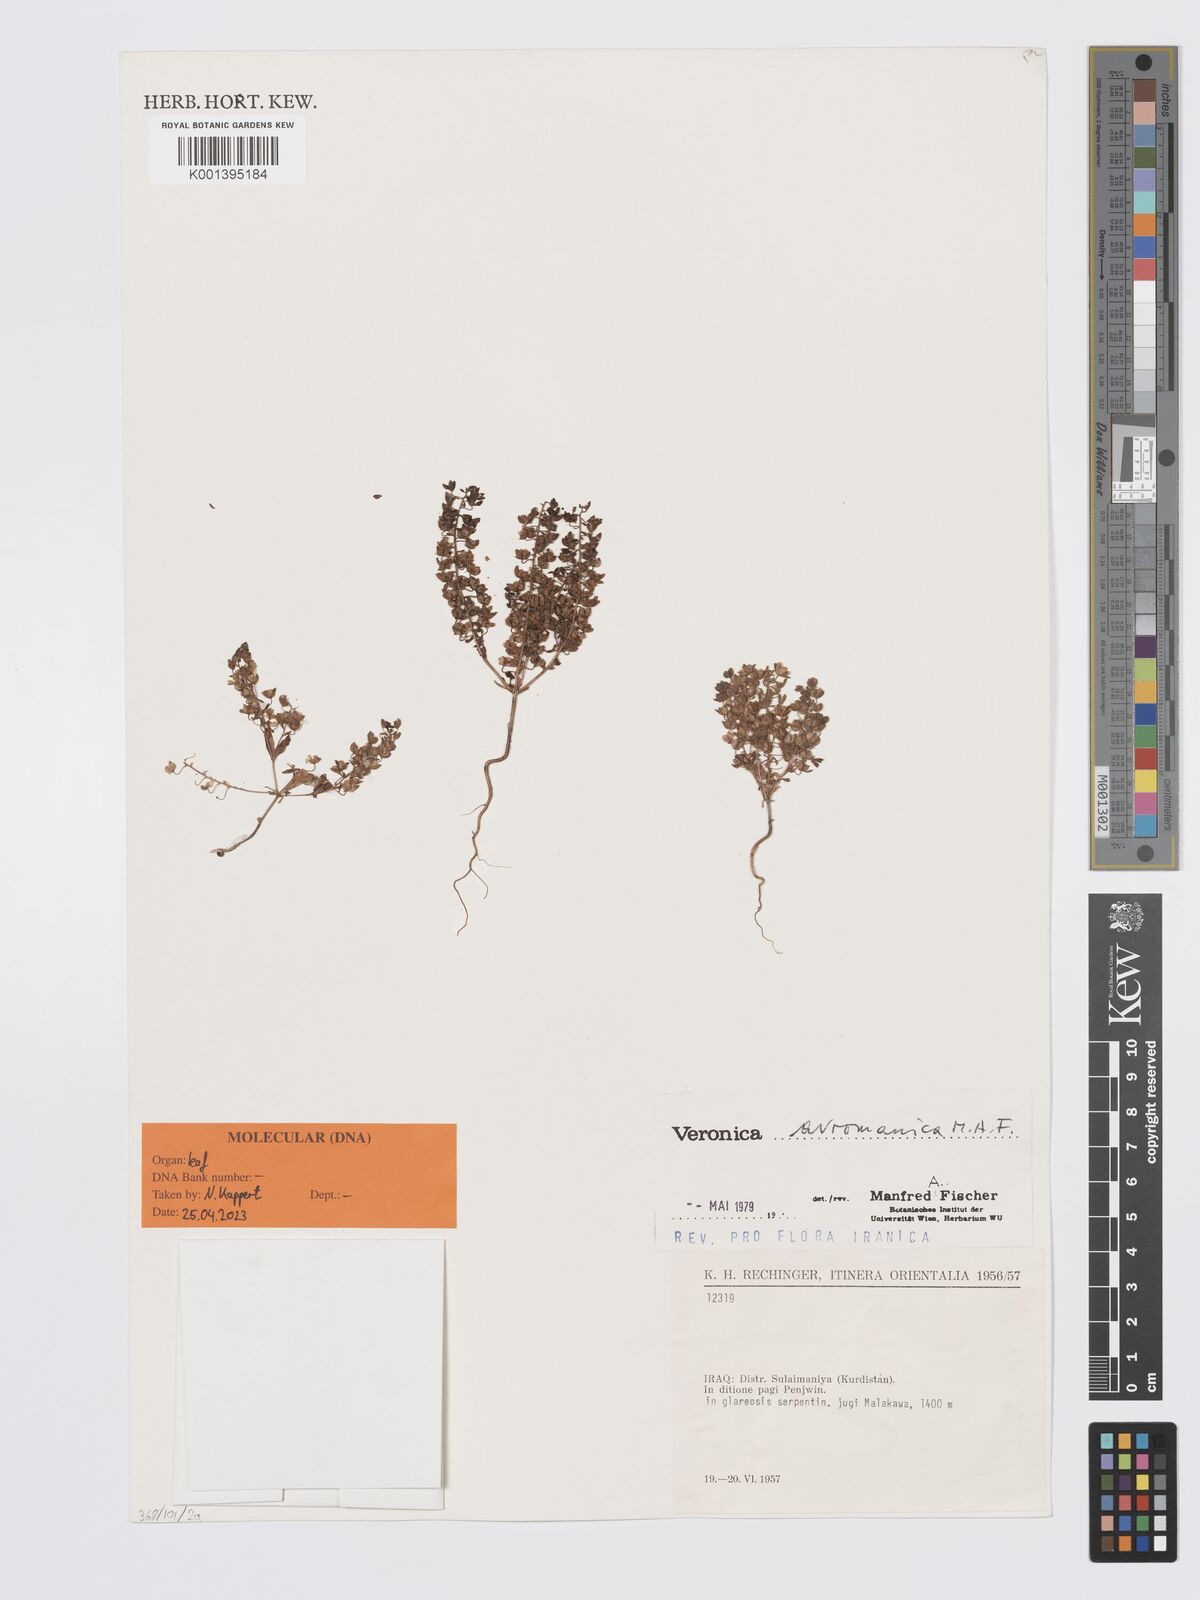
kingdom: Plantae
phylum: Tracheophyta
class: Magnoliopsida
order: Lamiales
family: Plantaginaceae
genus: Veronica
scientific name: Veronica avromanica
